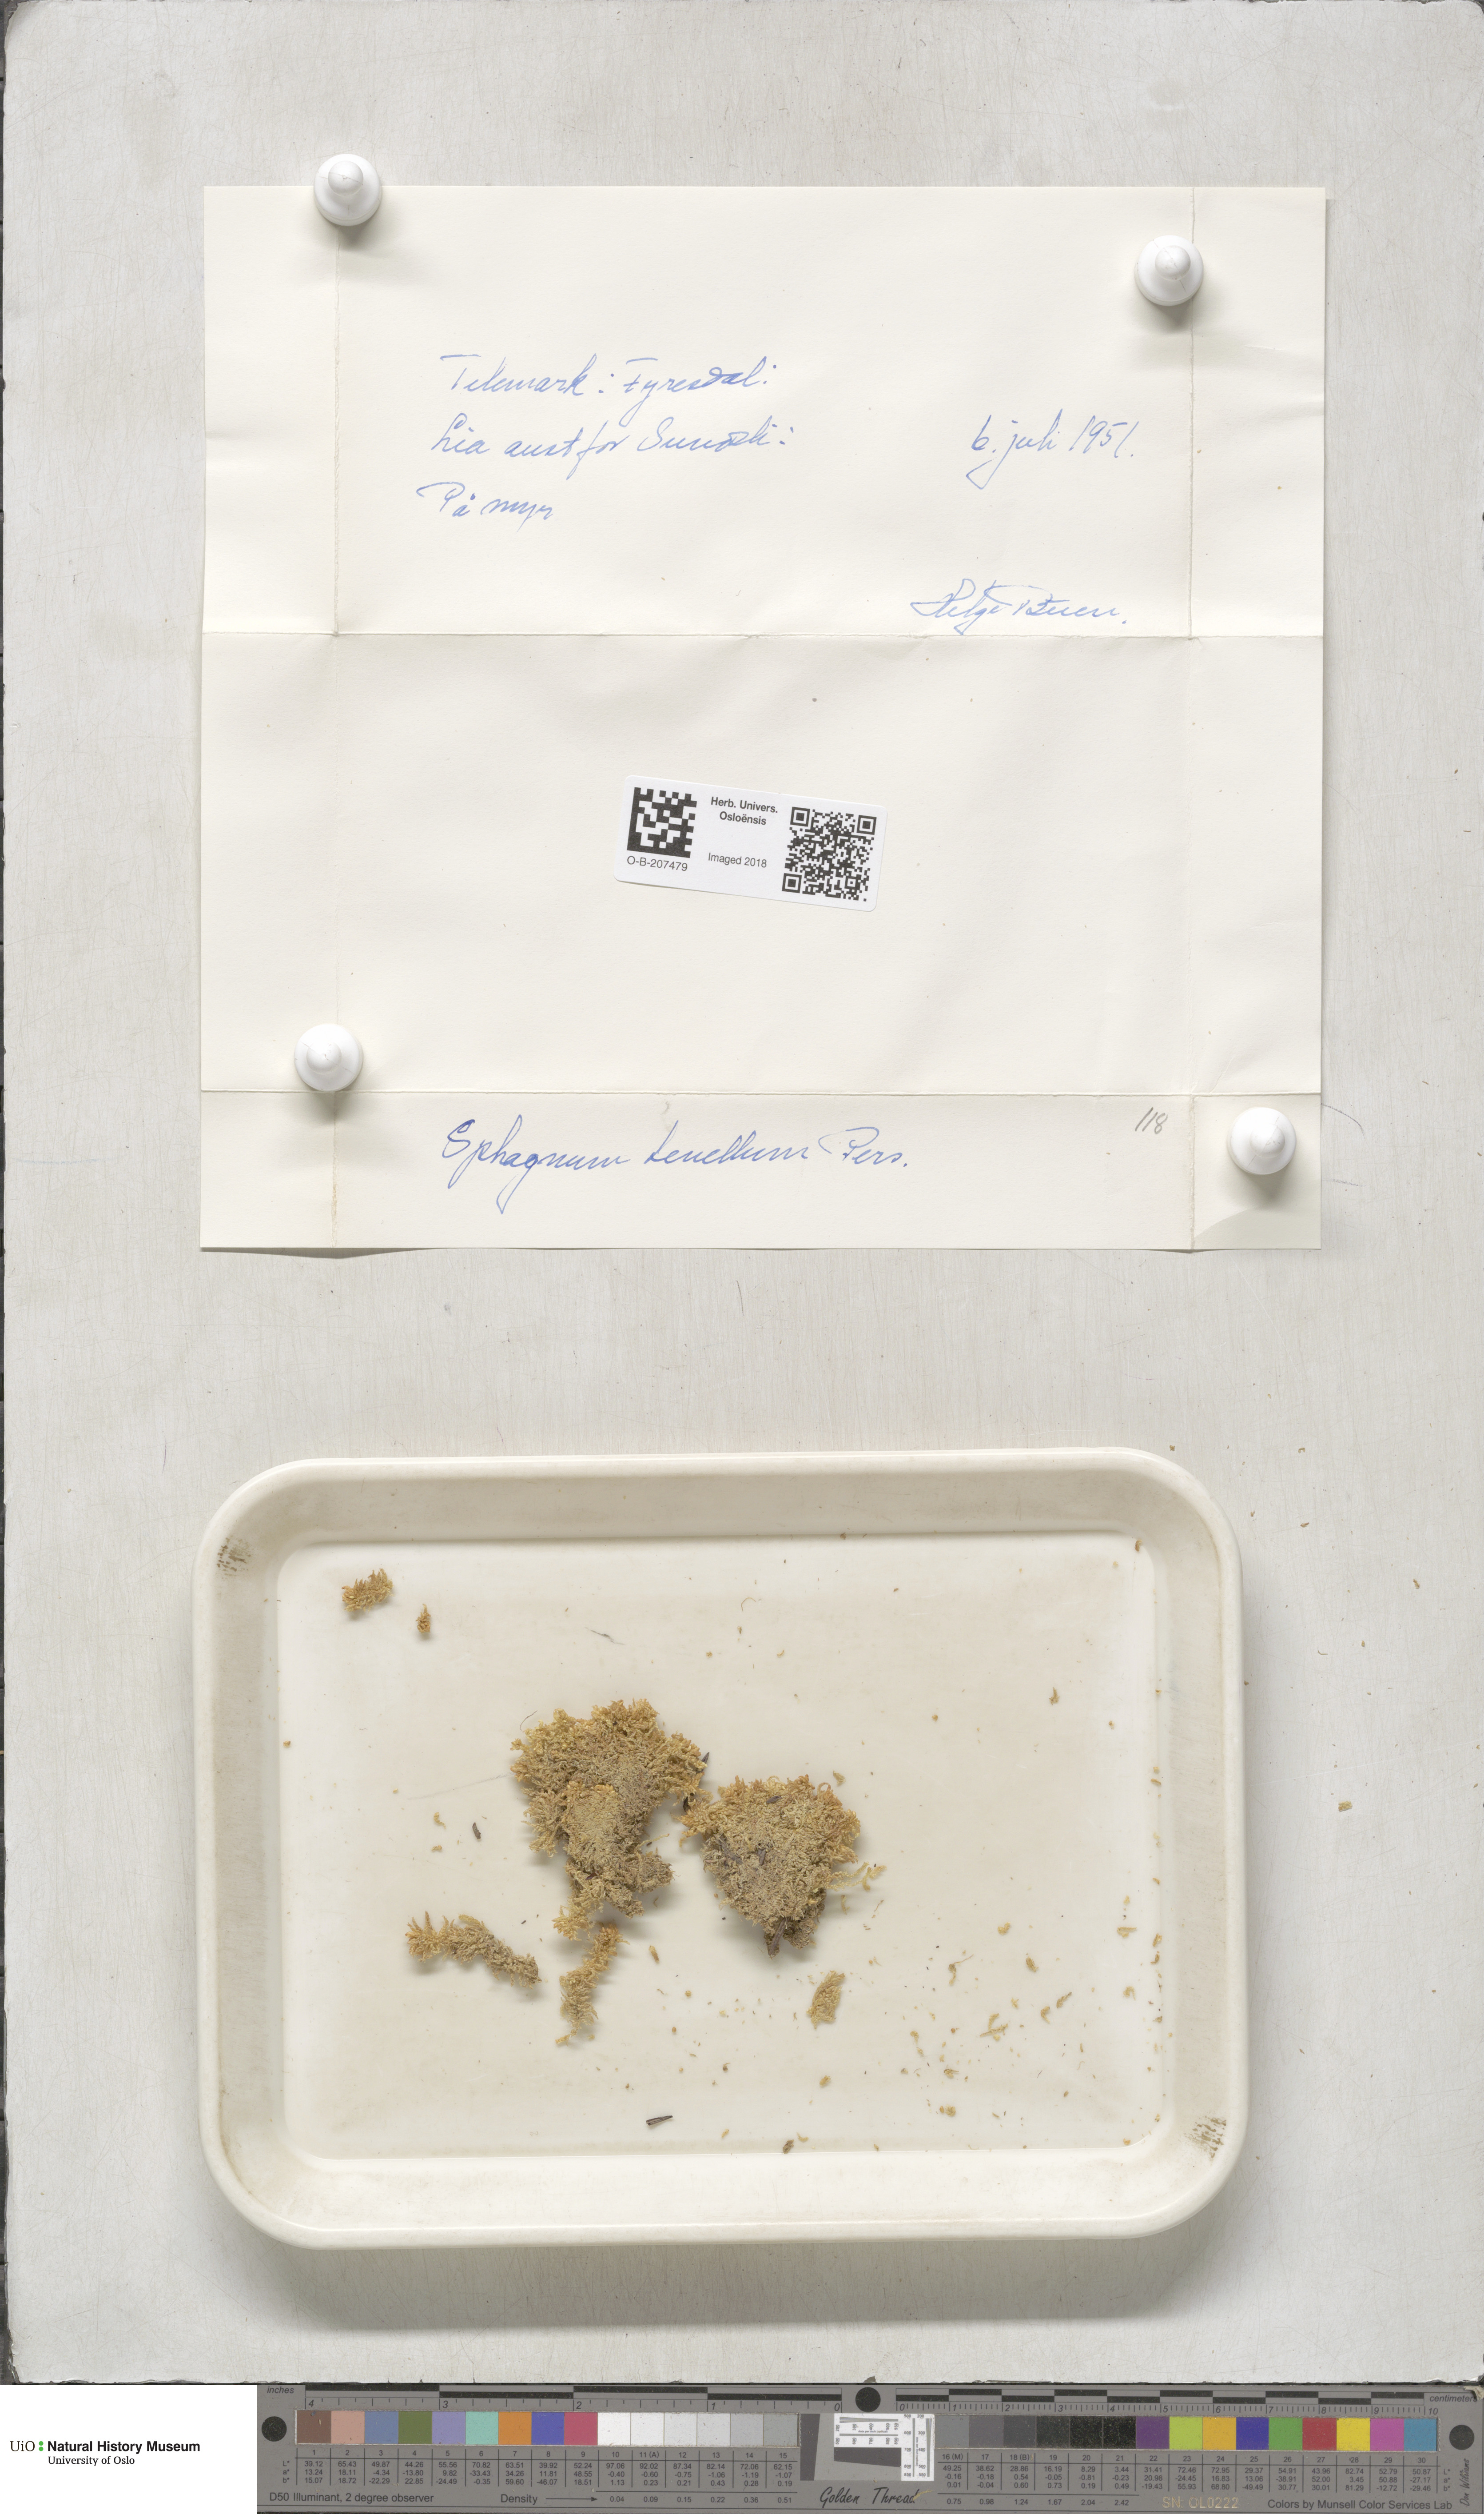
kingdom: Plantae
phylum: Bryophyta
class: Sphagnopsida
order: Sphagnales
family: Sphagnaceae
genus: Sphagnum
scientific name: Sphagnum tenellum
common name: Soft bog-moss
